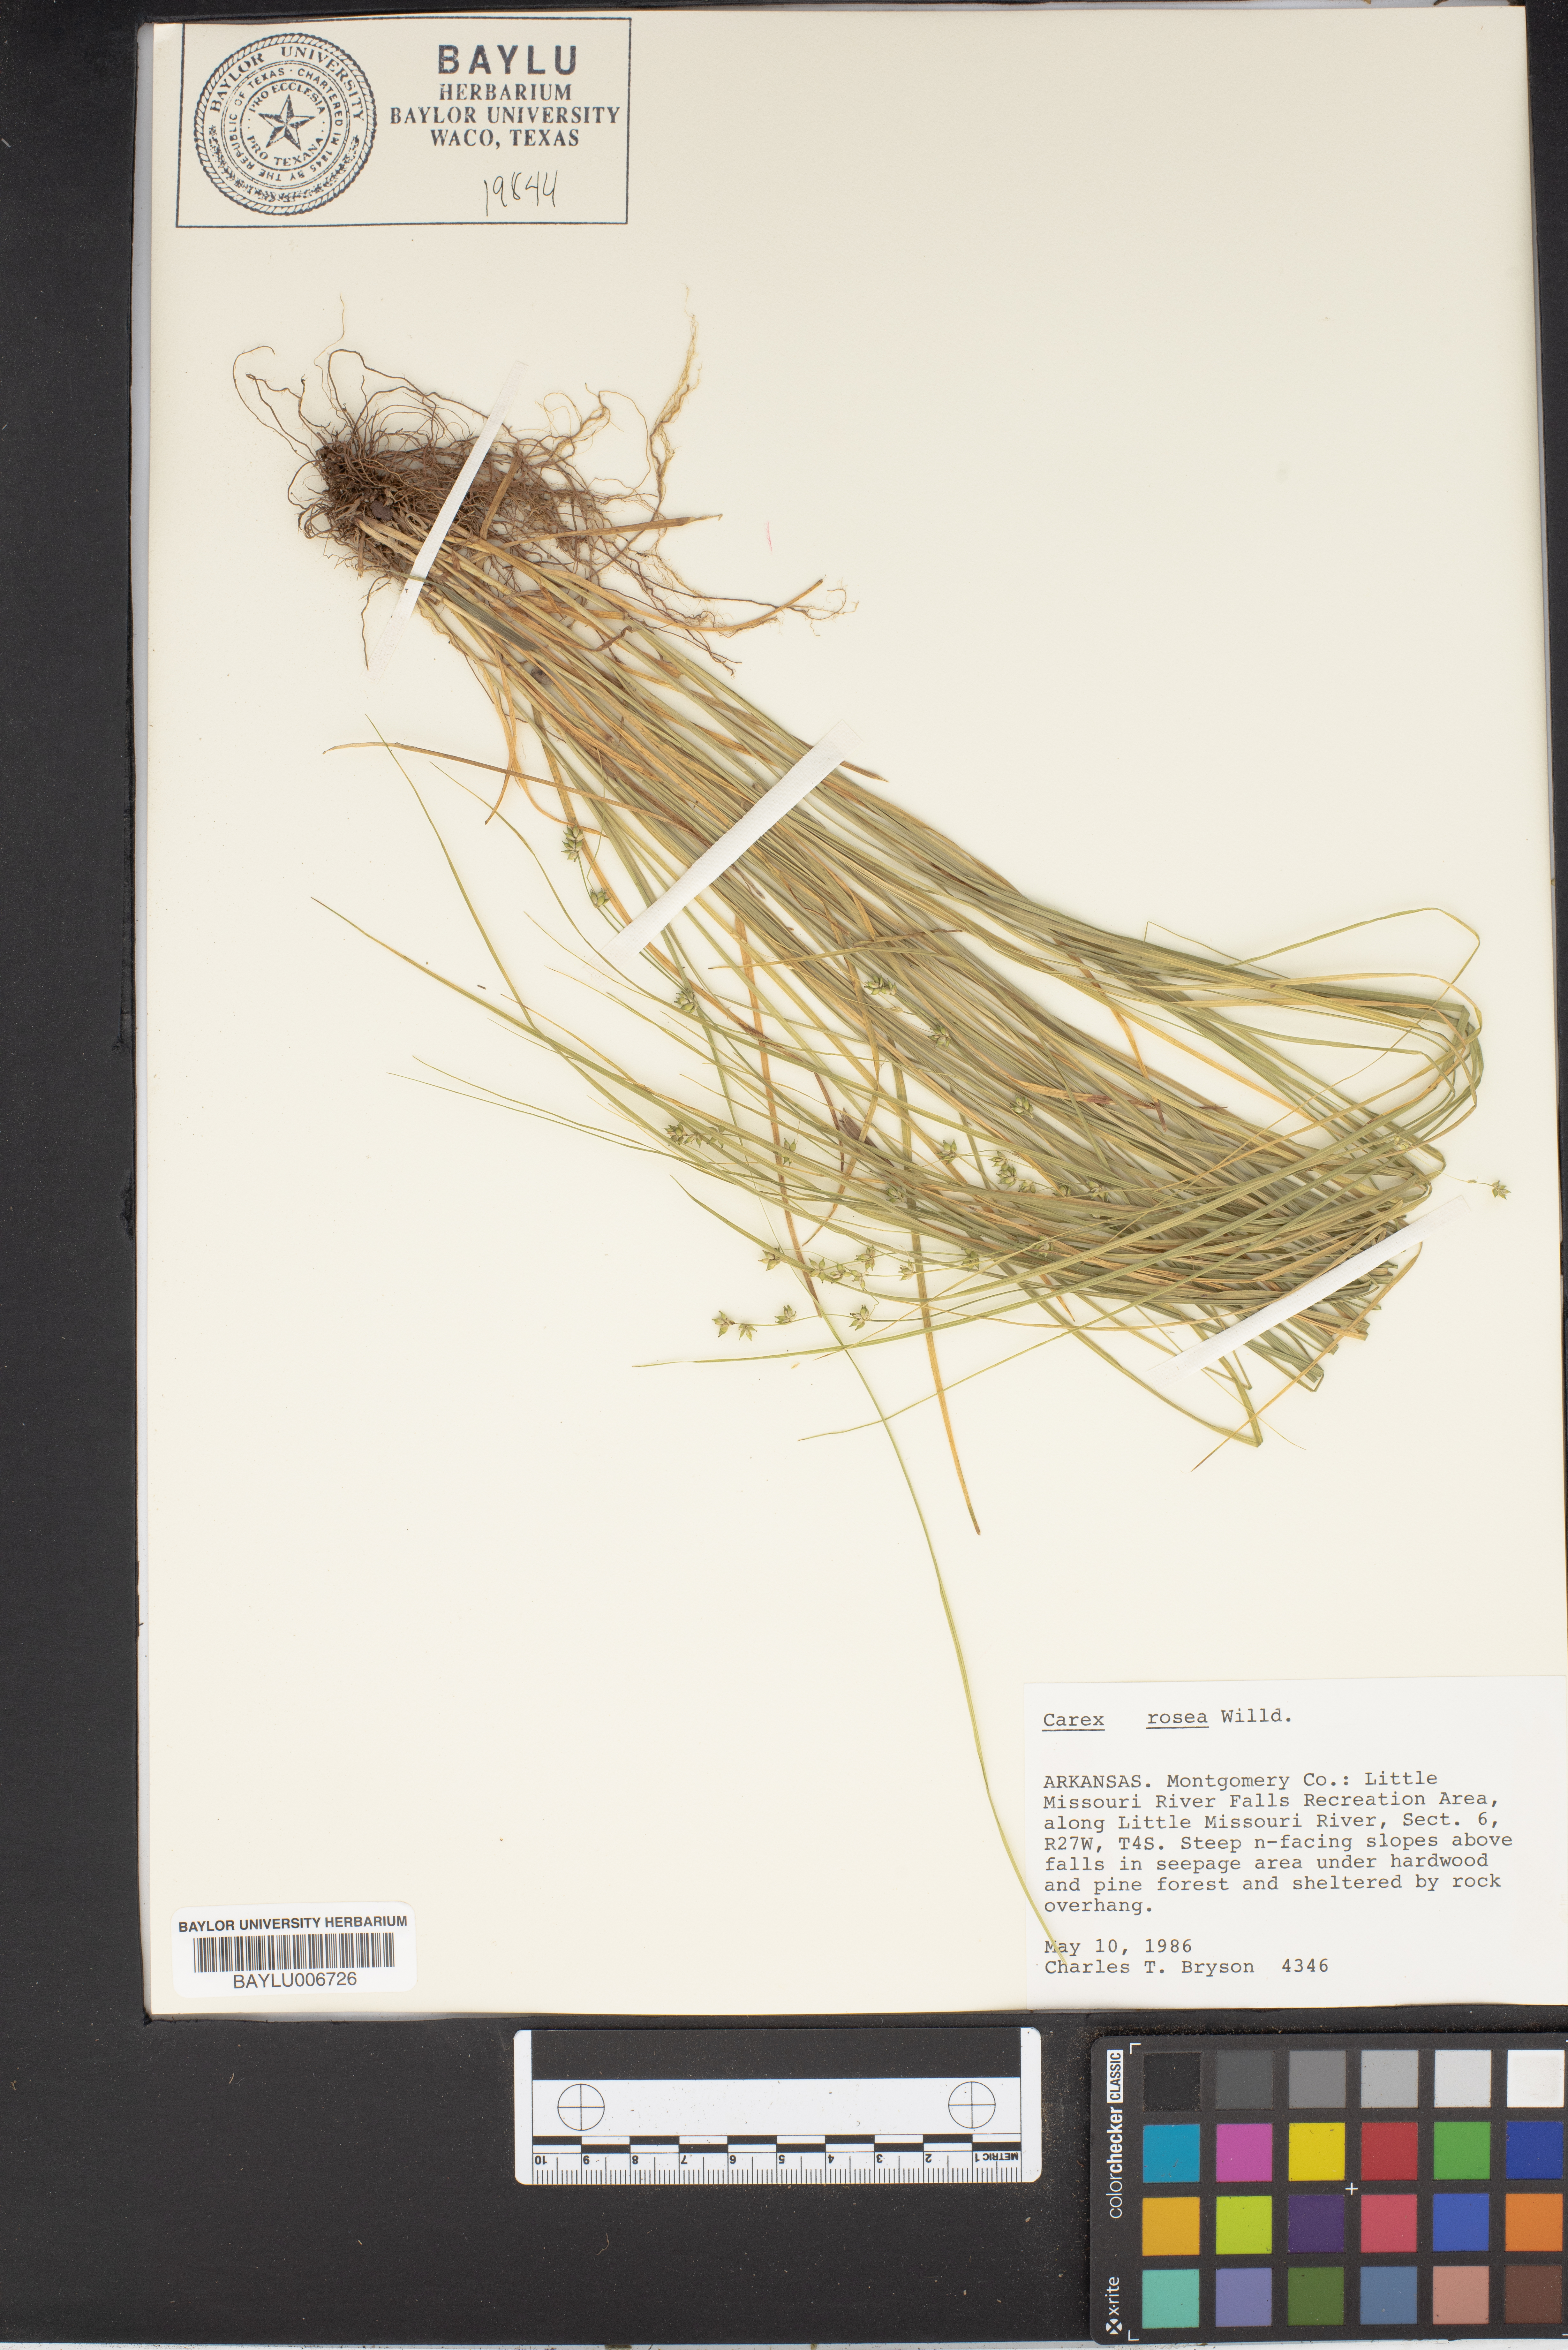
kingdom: Plantae
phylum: Tracheophyta
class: Liliopsida
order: Poales
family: Cyperaceae
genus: Carex
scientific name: Carex rosea
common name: Curly-styled wood sedge
